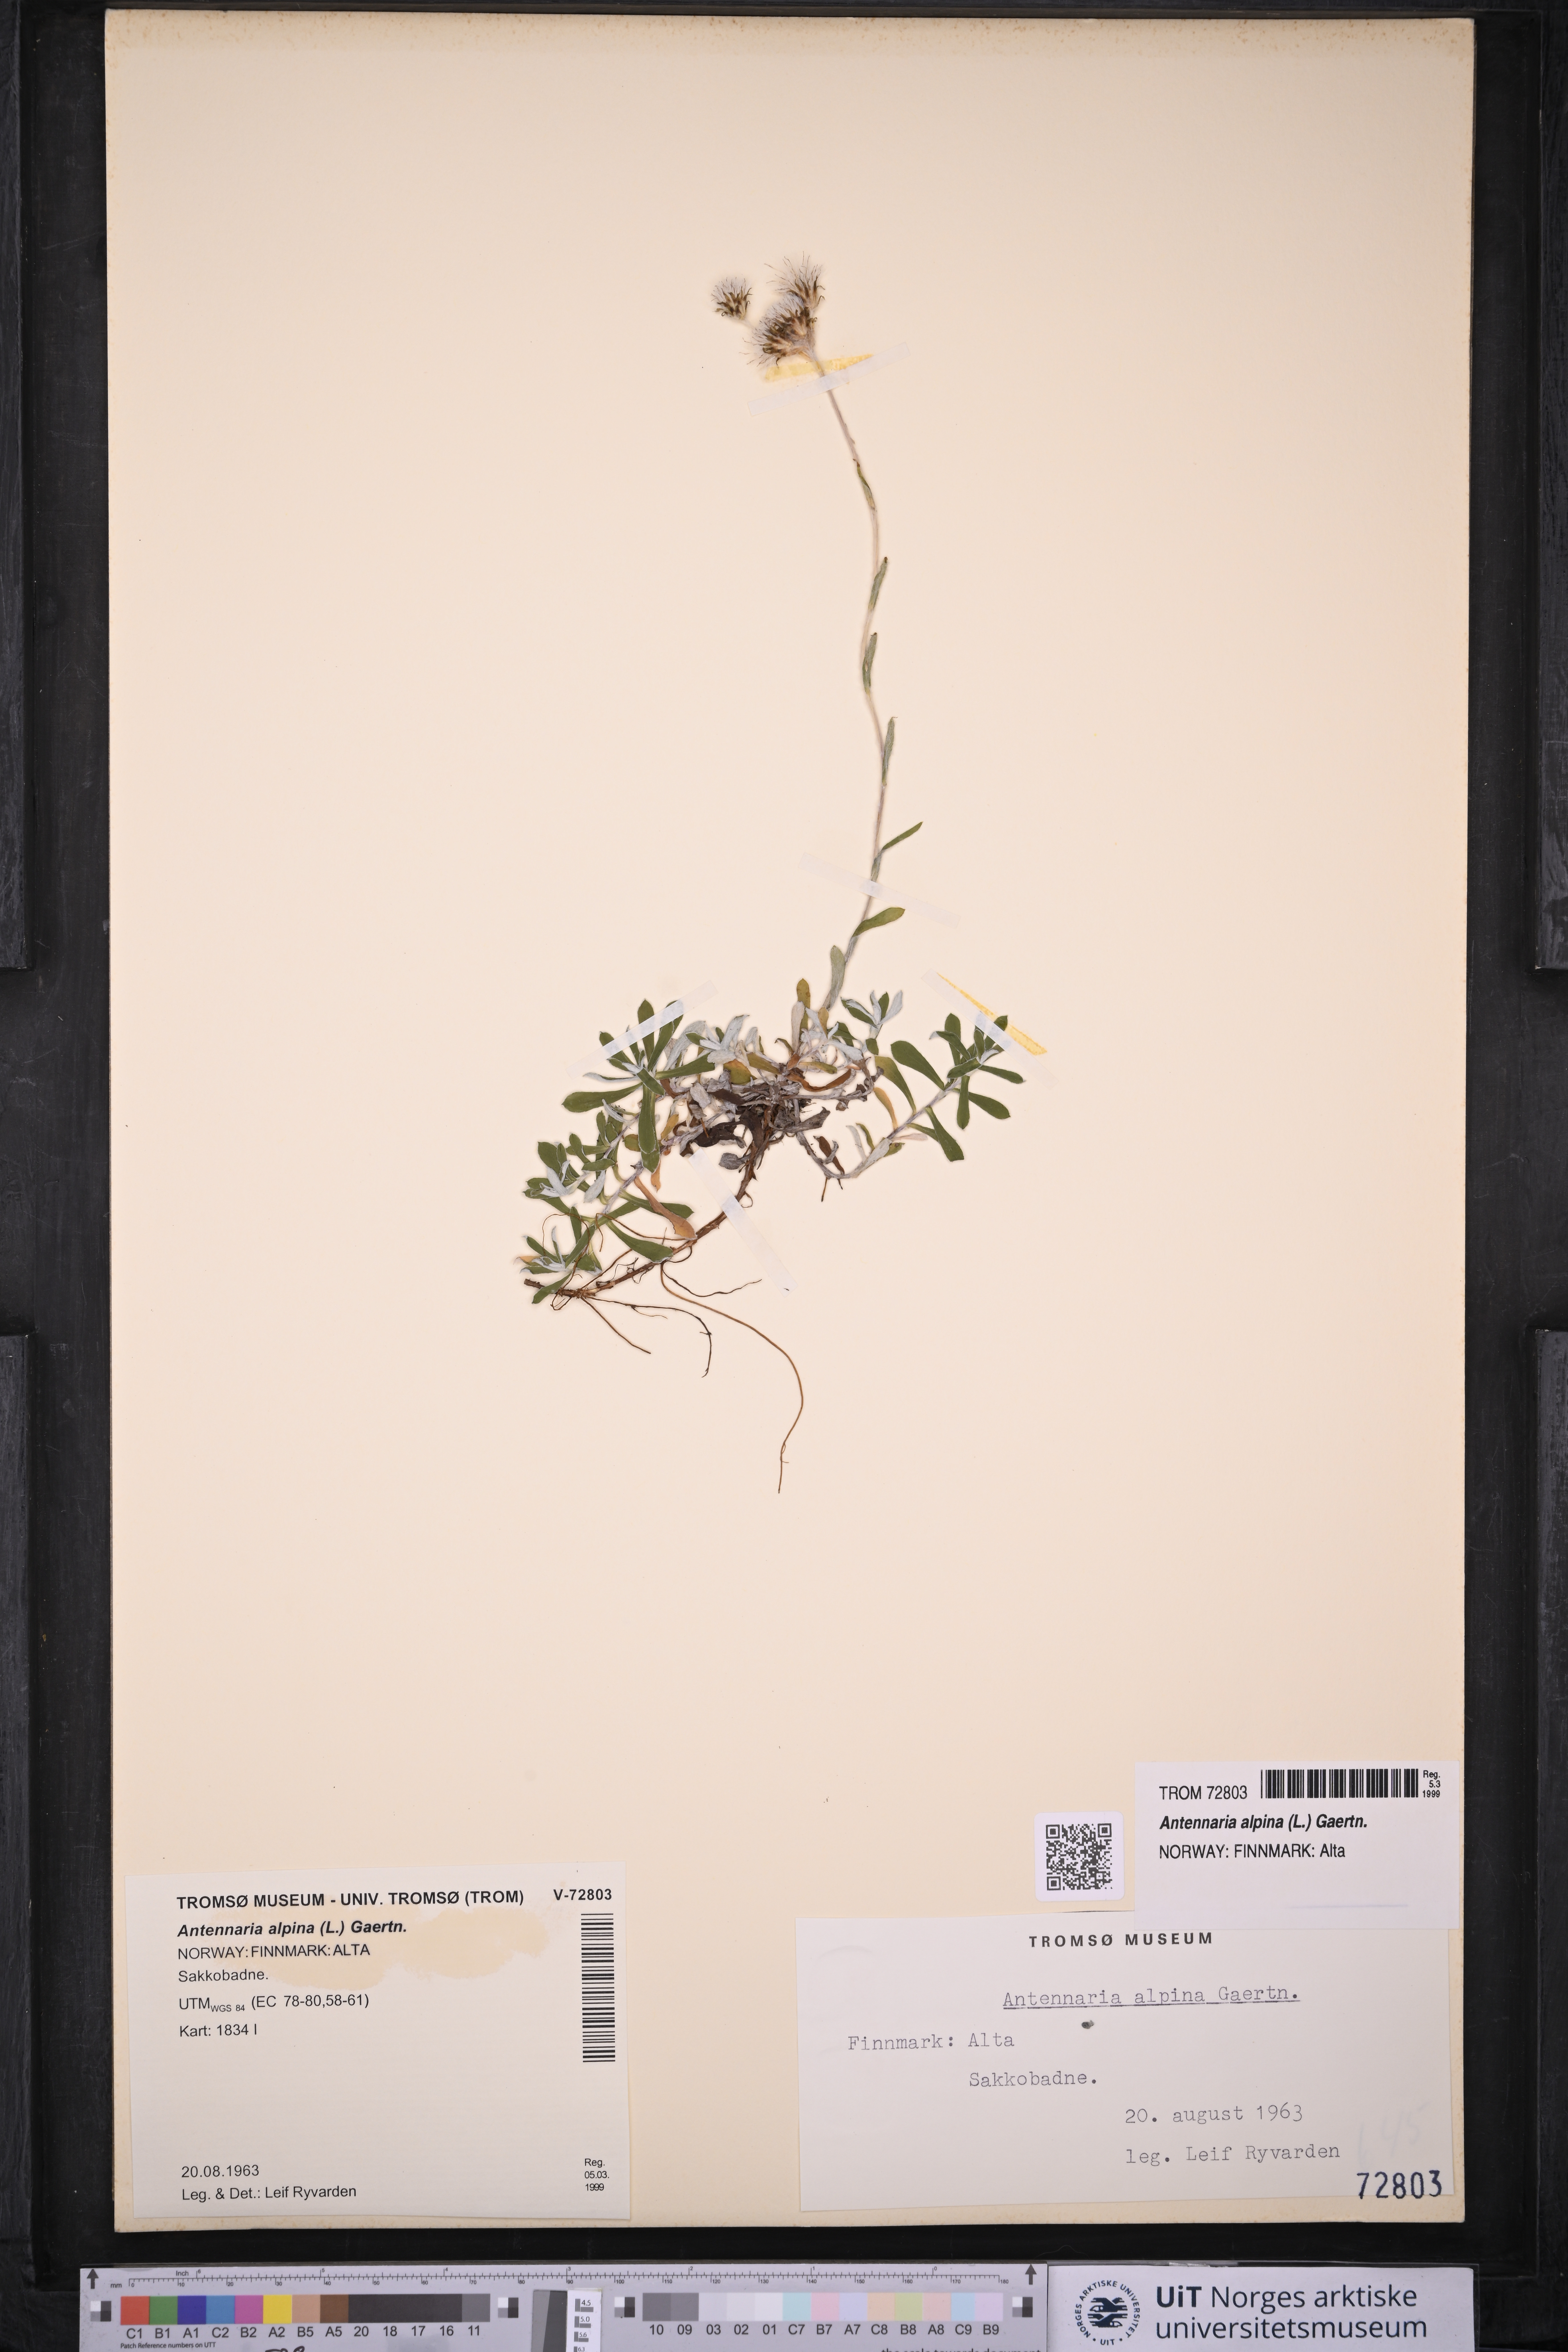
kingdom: Plantae
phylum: Tracheophyta
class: Magnoliopsida
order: Asterales
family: Asteraceae
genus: Antennaria
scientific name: Antennaria alpina
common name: Alpine pussytoes
